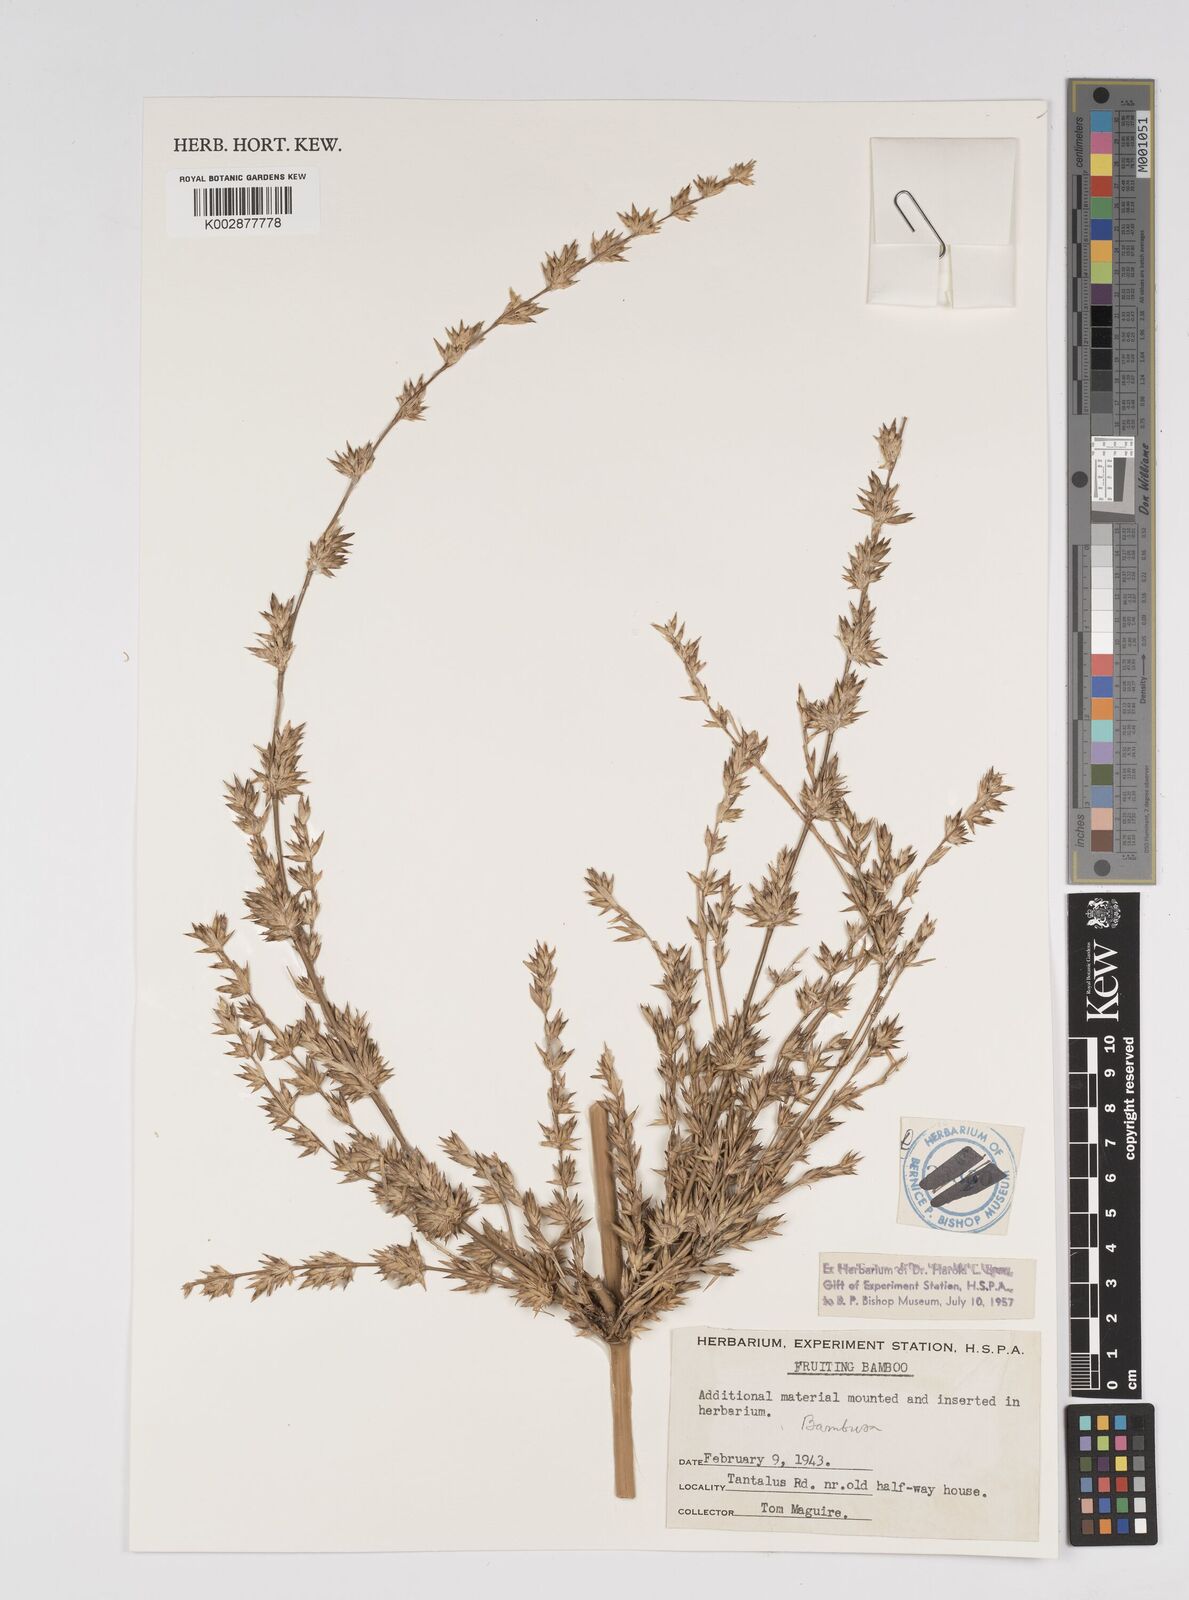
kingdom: Plantae
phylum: Tracheophyta
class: Liliopsida
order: Poales
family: Poaceae
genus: Bambusa
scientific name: Bambusa
